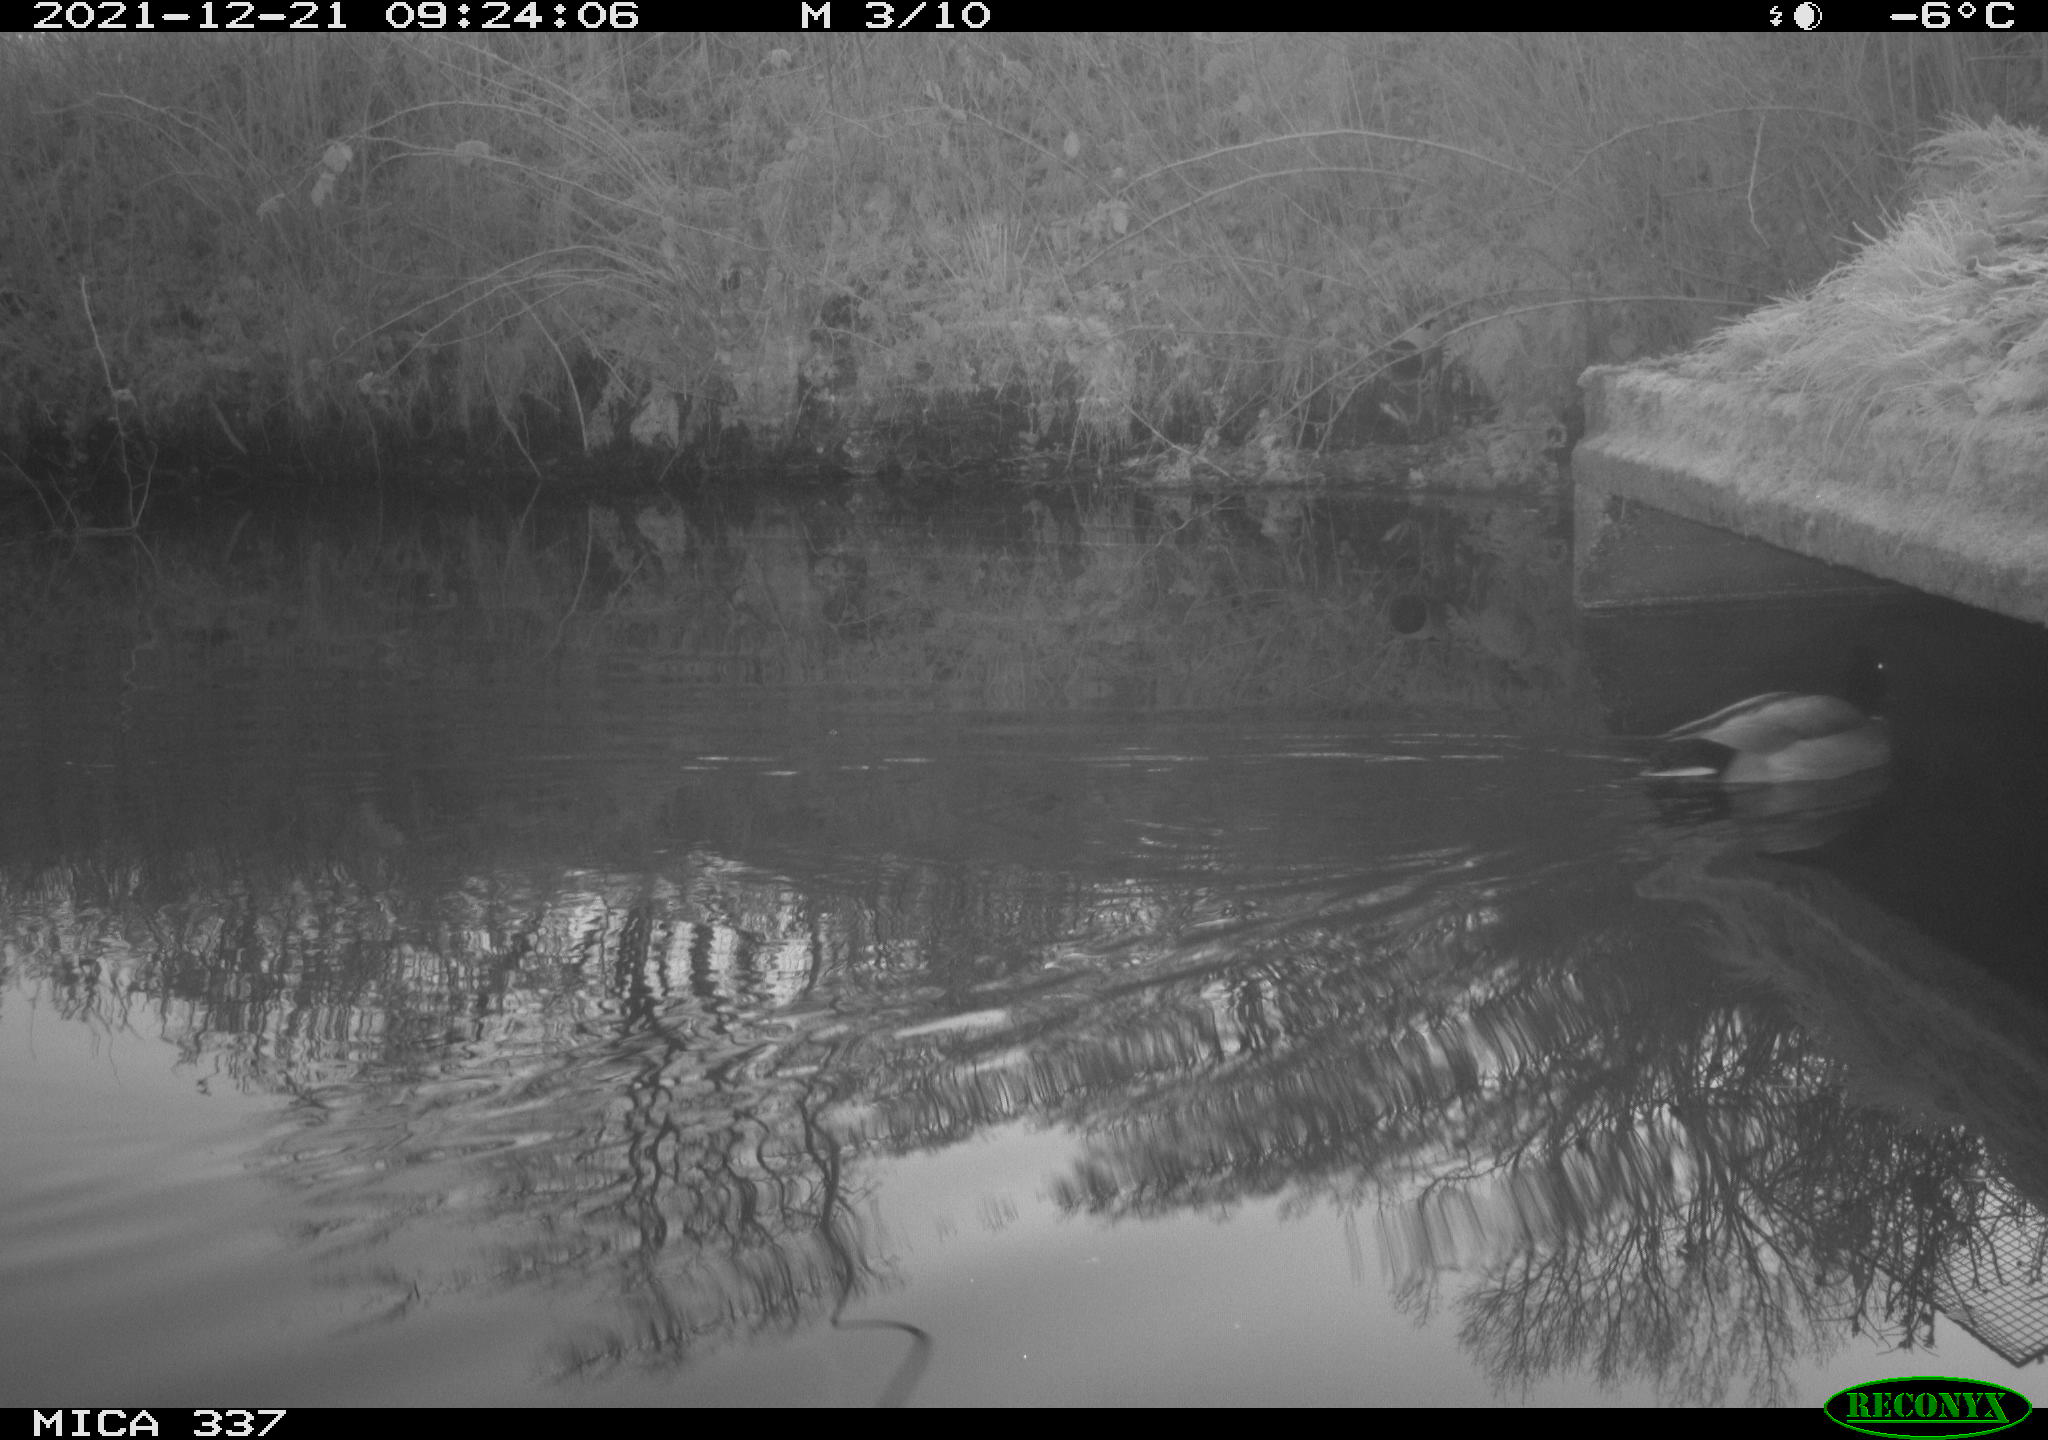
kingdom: Animalia
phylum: Chordata
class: Aves
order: Anseriformes
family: Anatidae
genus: Anas
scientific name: Anas platyrhynchos
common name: Mallard
